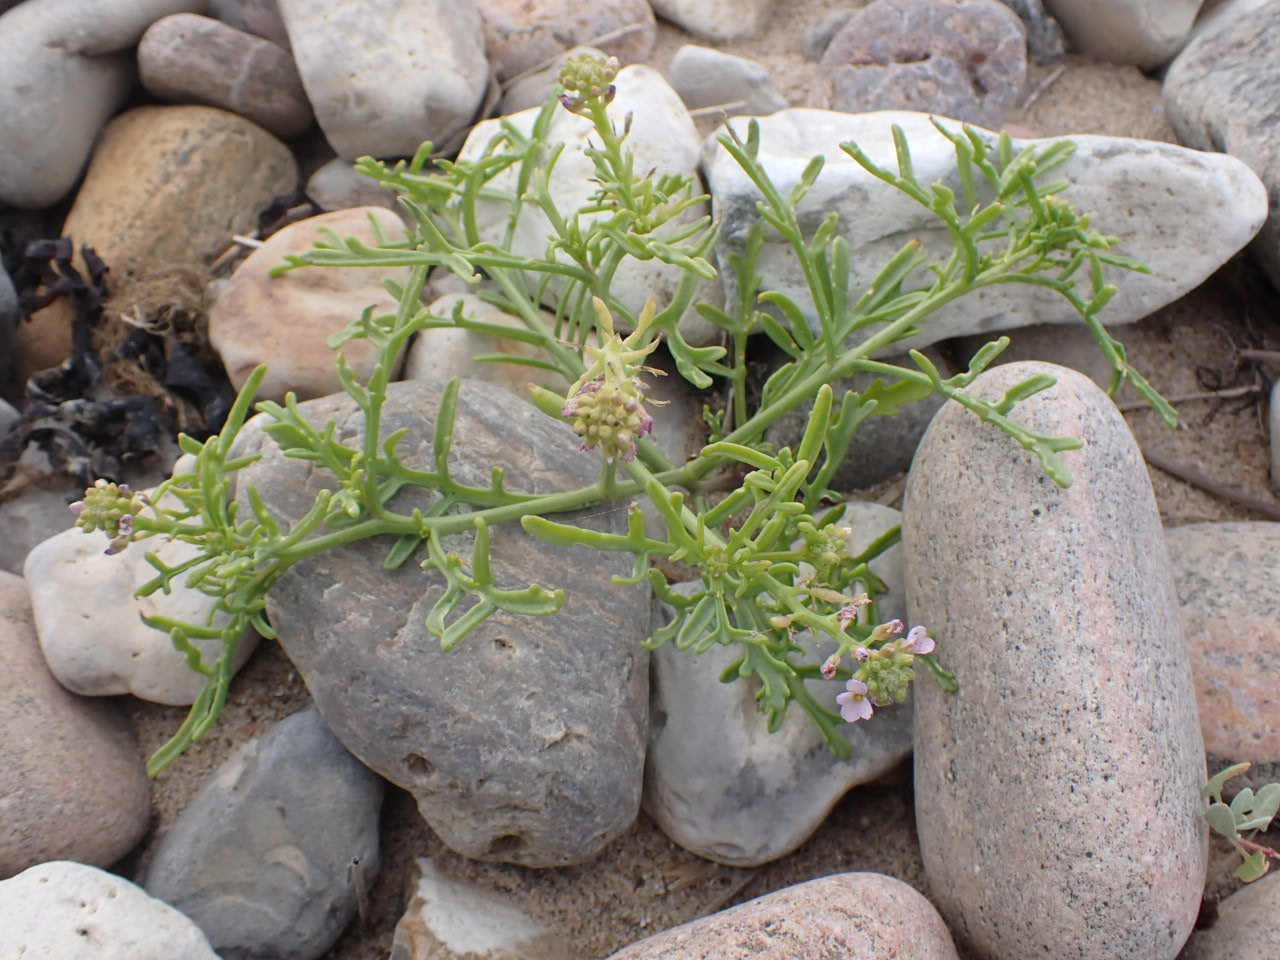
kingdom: Plantae
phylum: Tracheophyta
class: Magnoliopsida
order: Brassicales
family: Brassicaceae
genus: Cakile
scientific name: Cakile maritima
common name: Østersø-strandsennep
